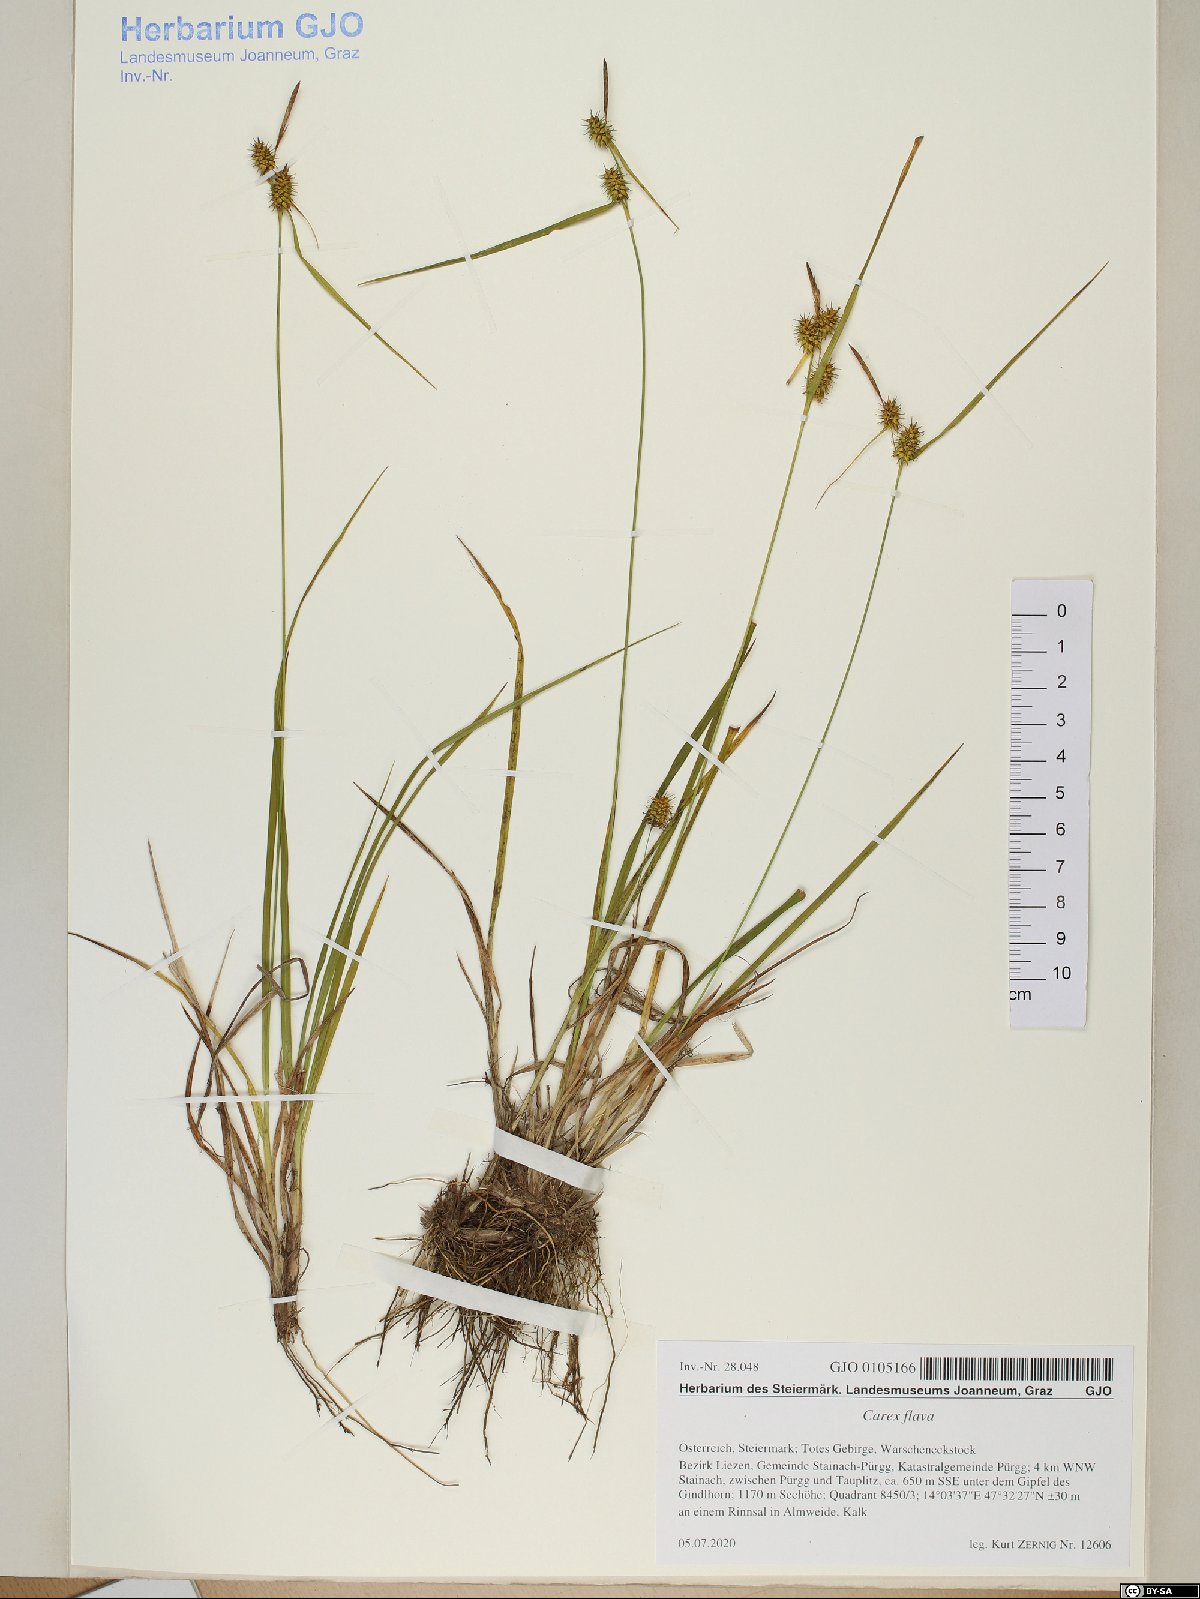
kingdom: Plantae
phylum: Tracheophyta
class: Liliopsida
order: Poales
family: Cyperaceae
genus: Carex
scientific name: Carex flava
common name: Large yellow-sedge
